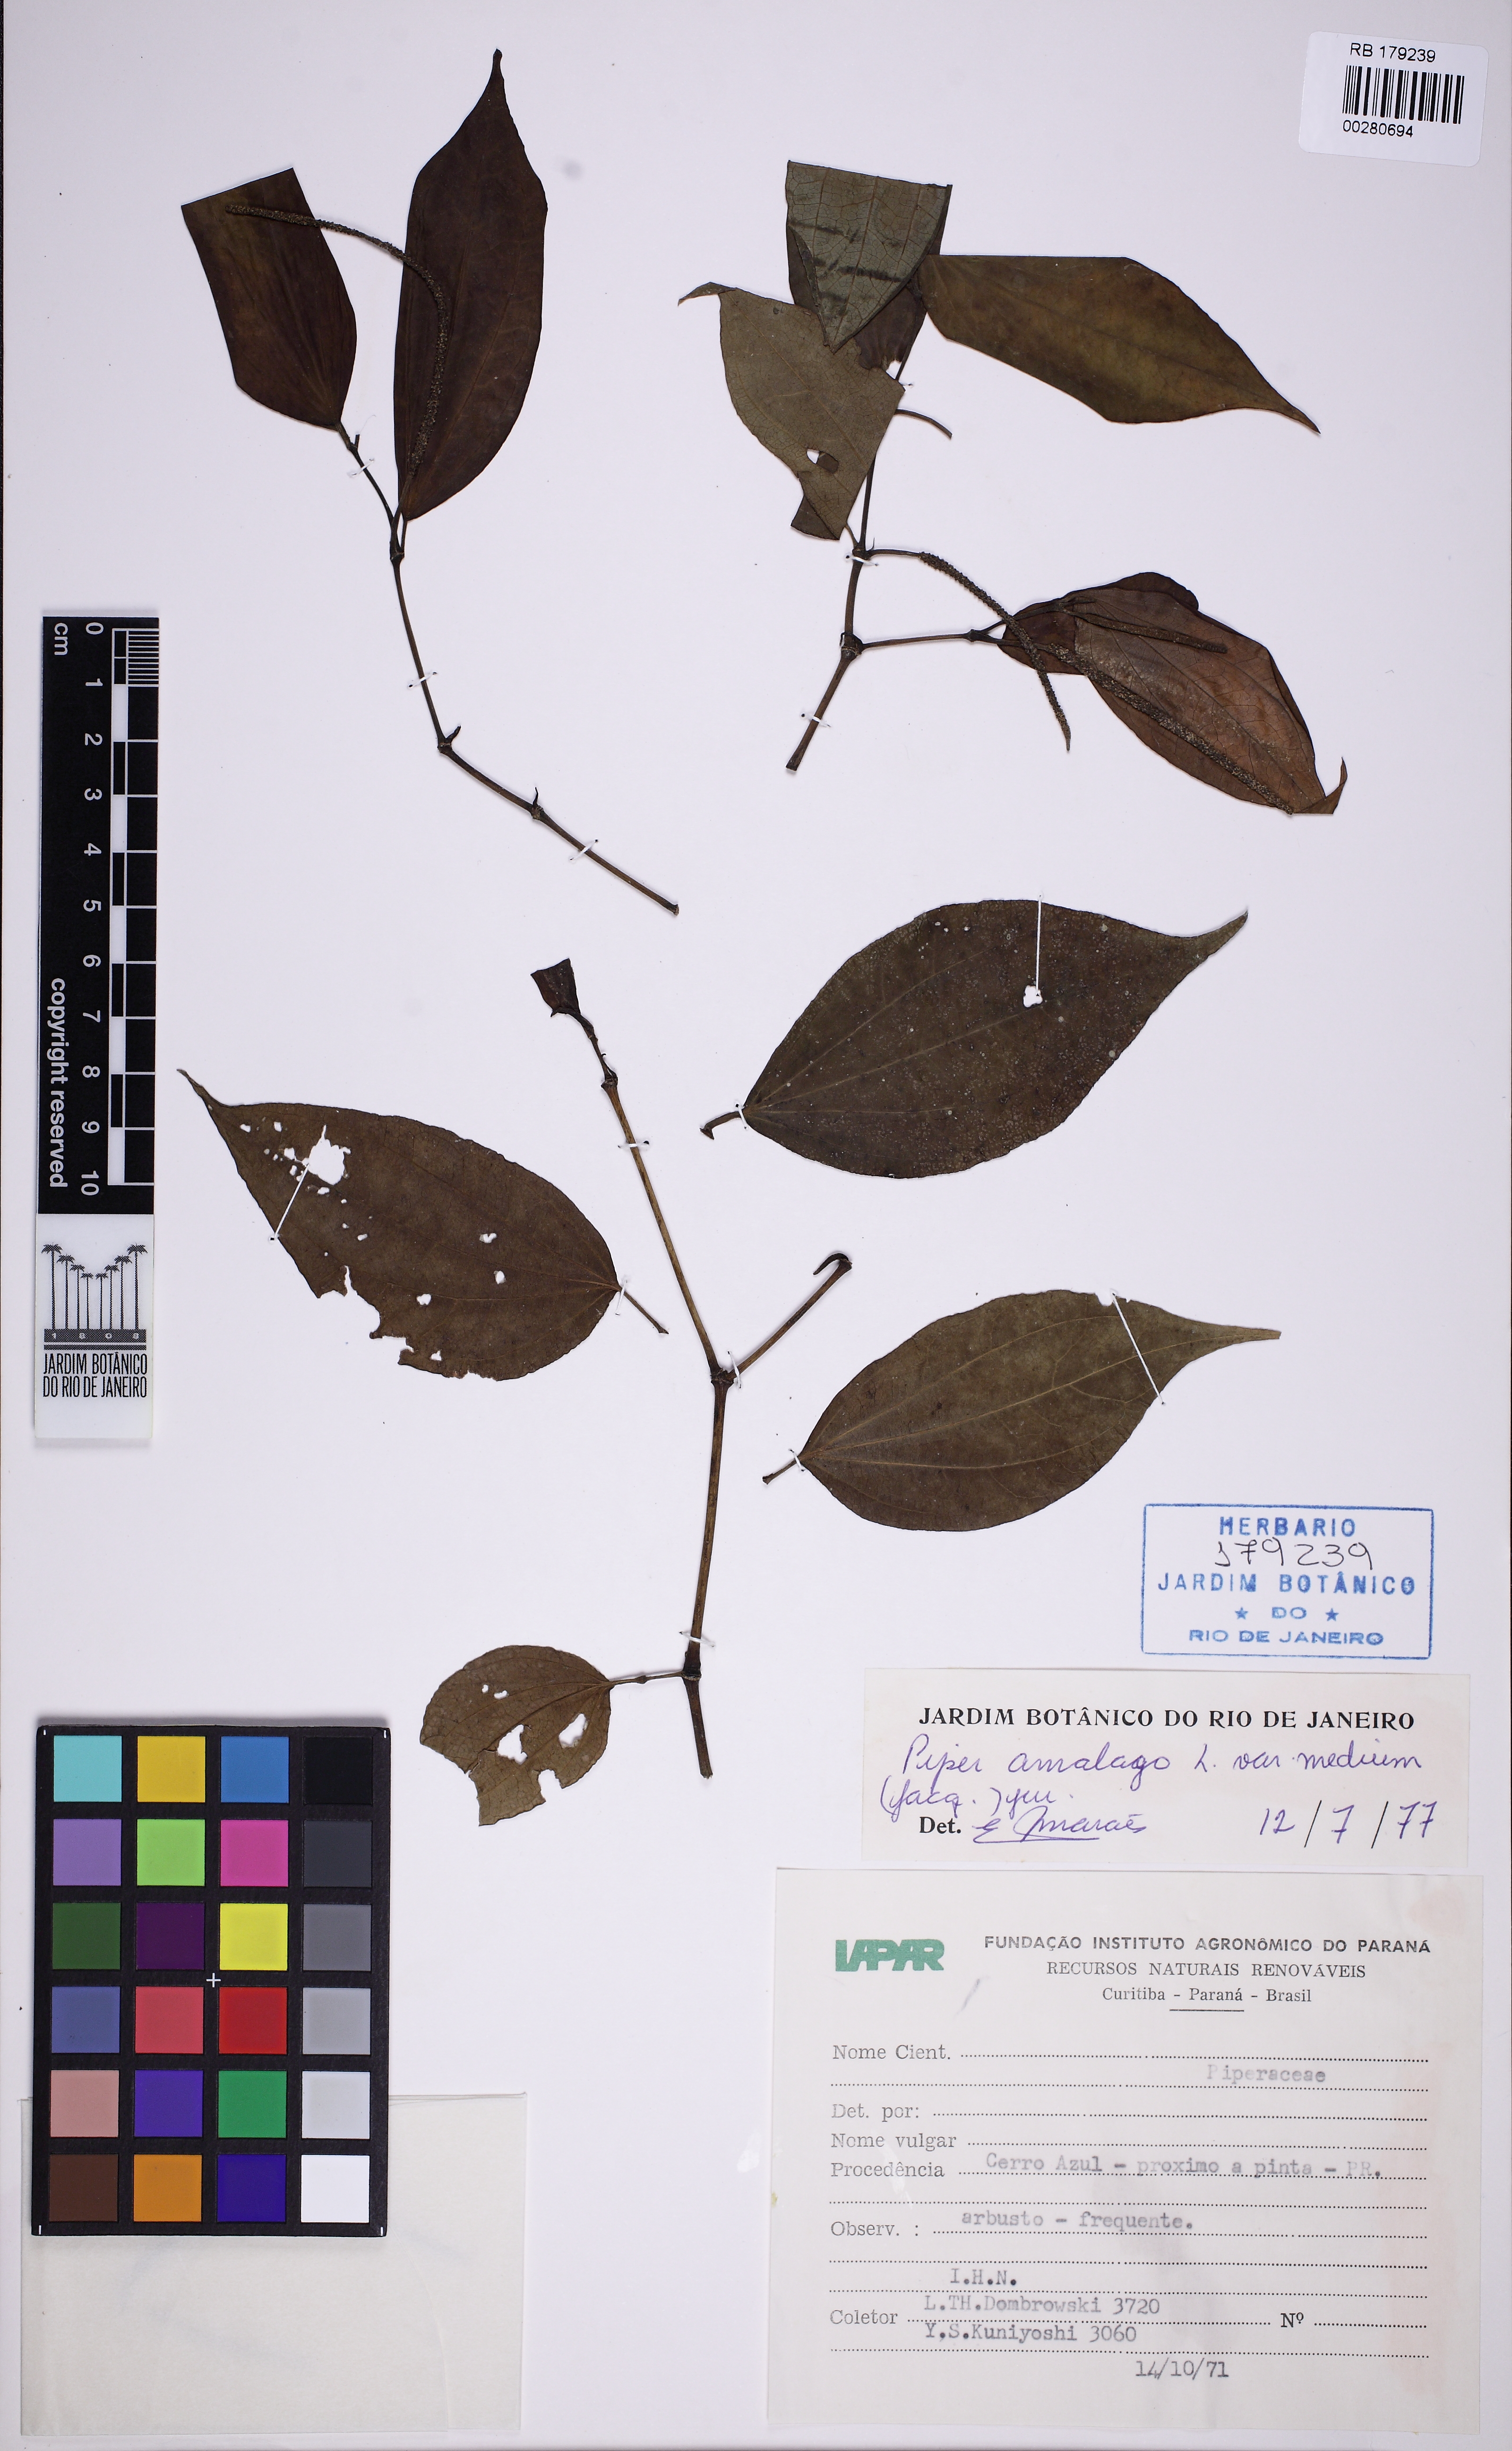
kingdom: Plantae
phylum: Tracheophyta
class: Magnoliopsida
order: Piperales
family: Piperaceae
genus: Piper
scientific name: Piper amalago
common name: Pepper-elder
